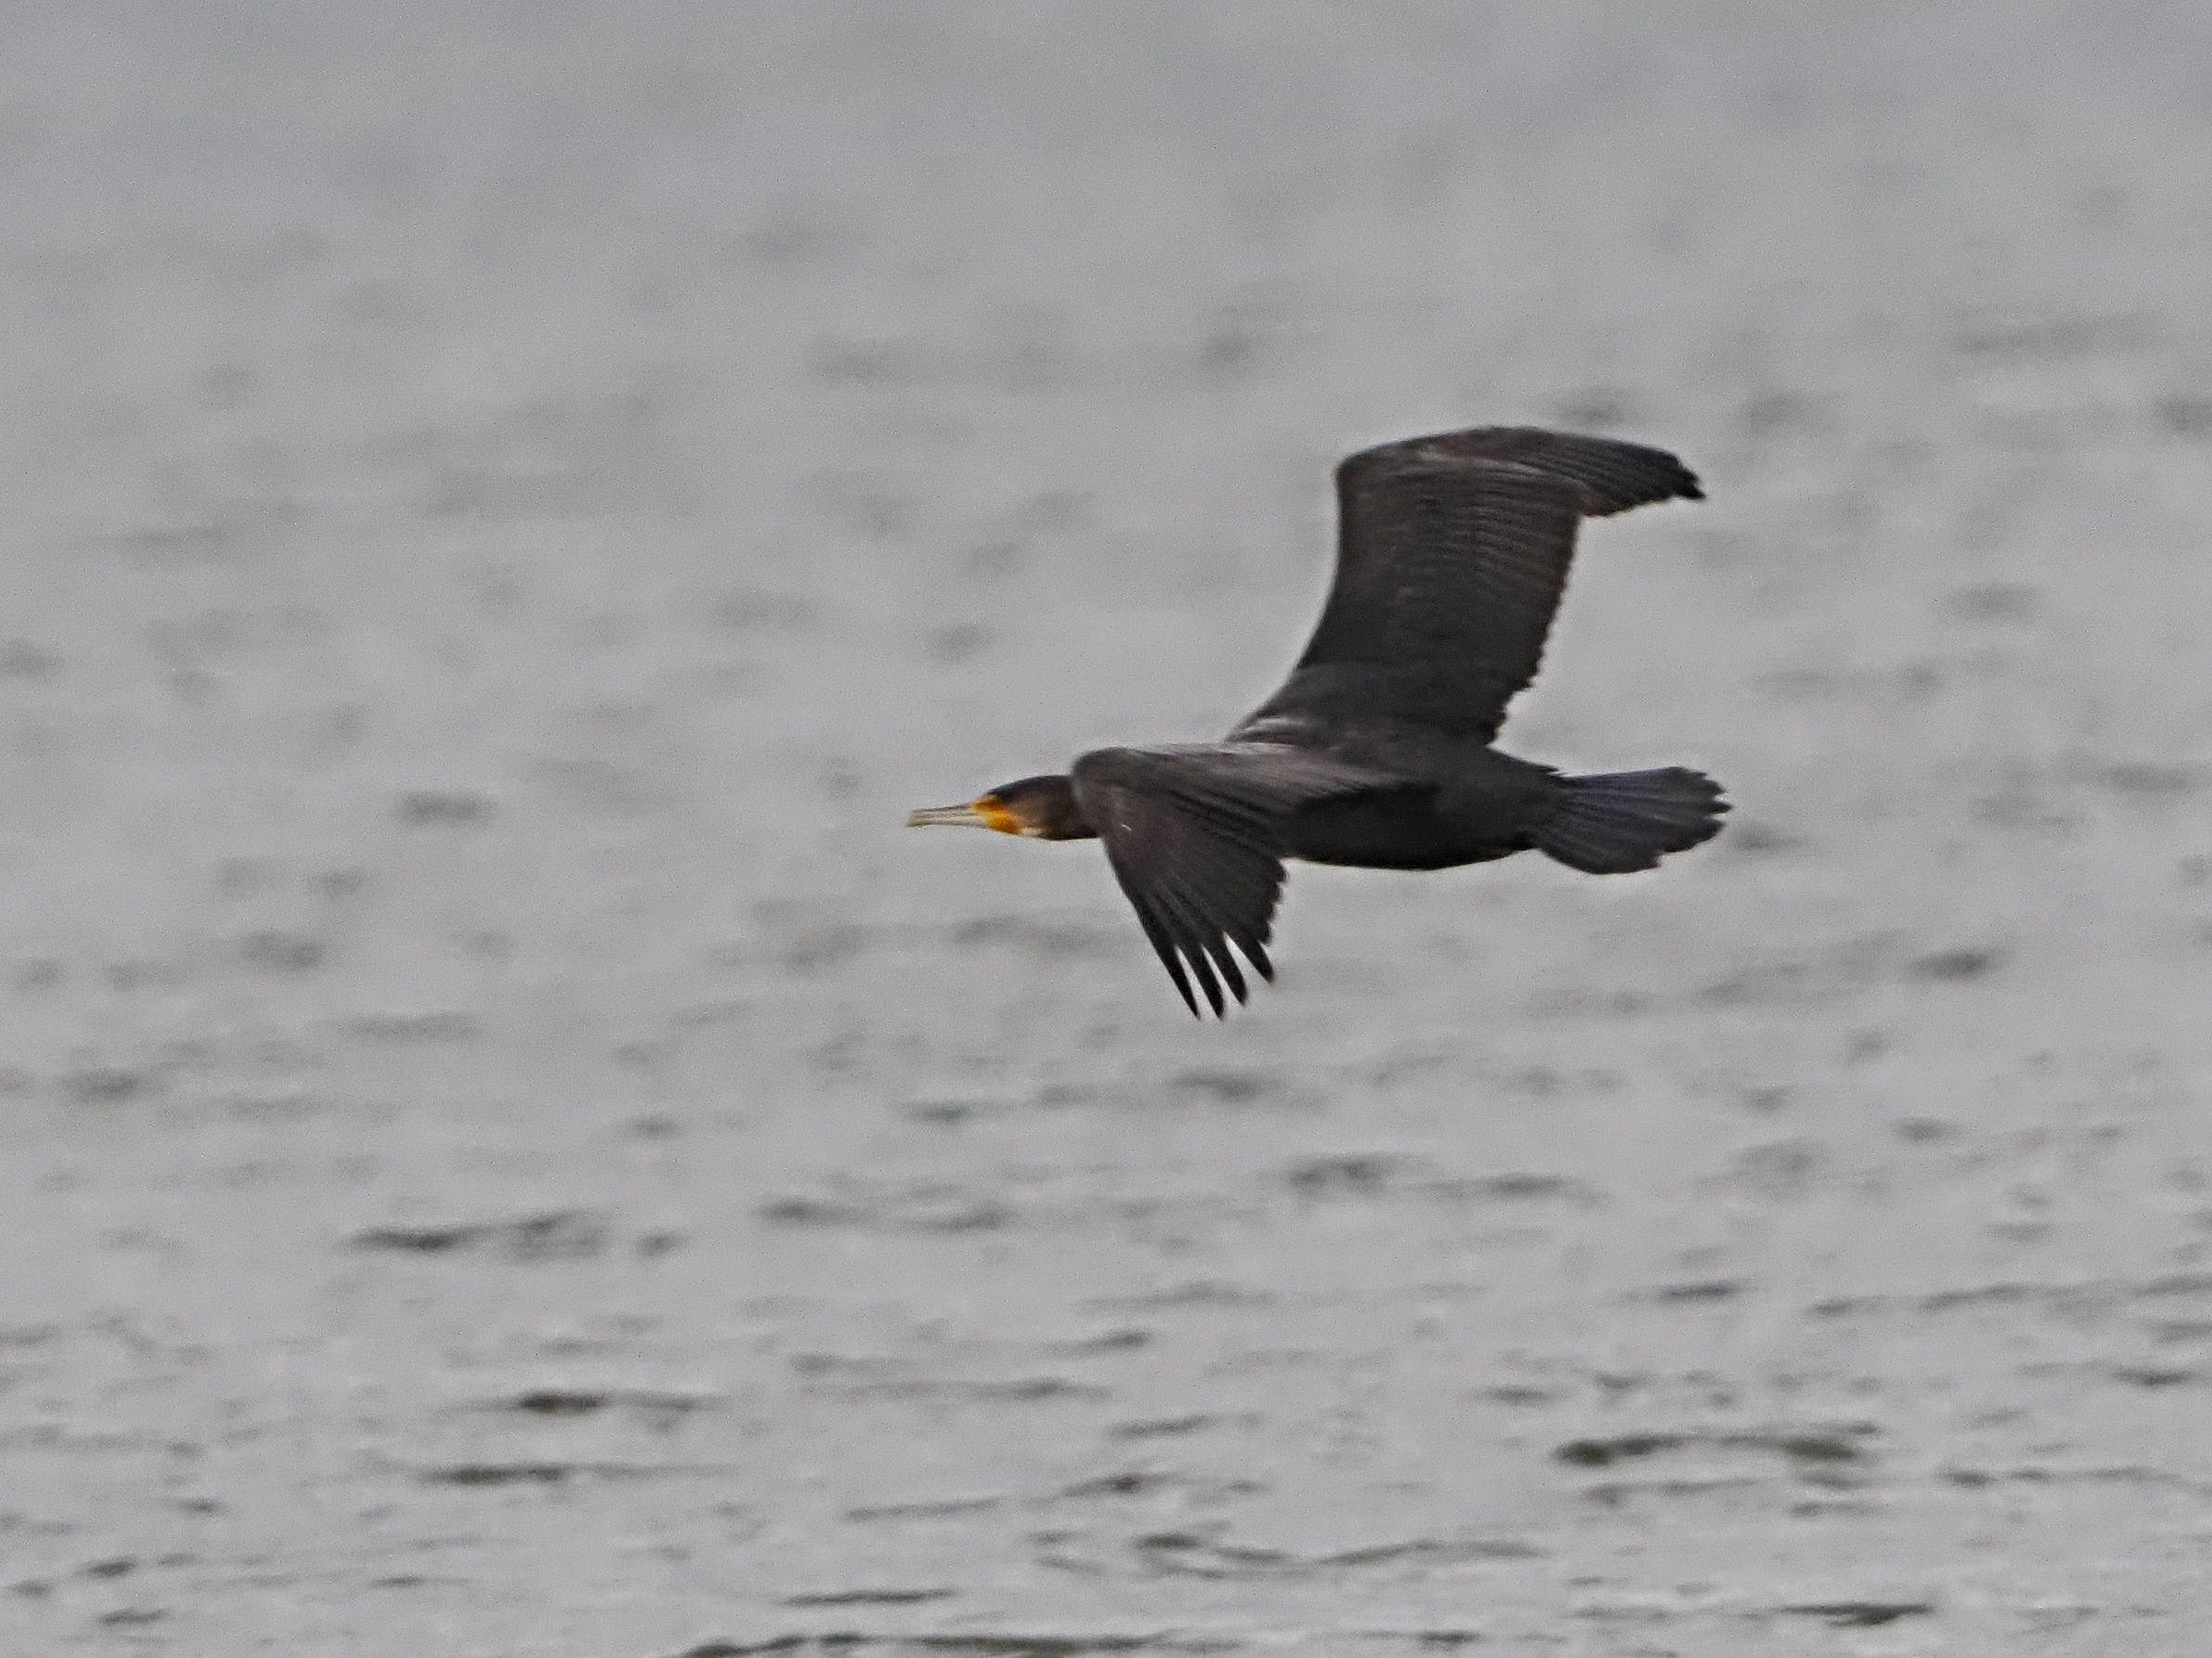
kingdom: Animalia
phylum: Chordata
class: Aves
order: Suliformes
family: Phalacrocoracidae
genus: Phalacrocorax
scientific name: Phalacrocorax carbo
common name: Skarv
